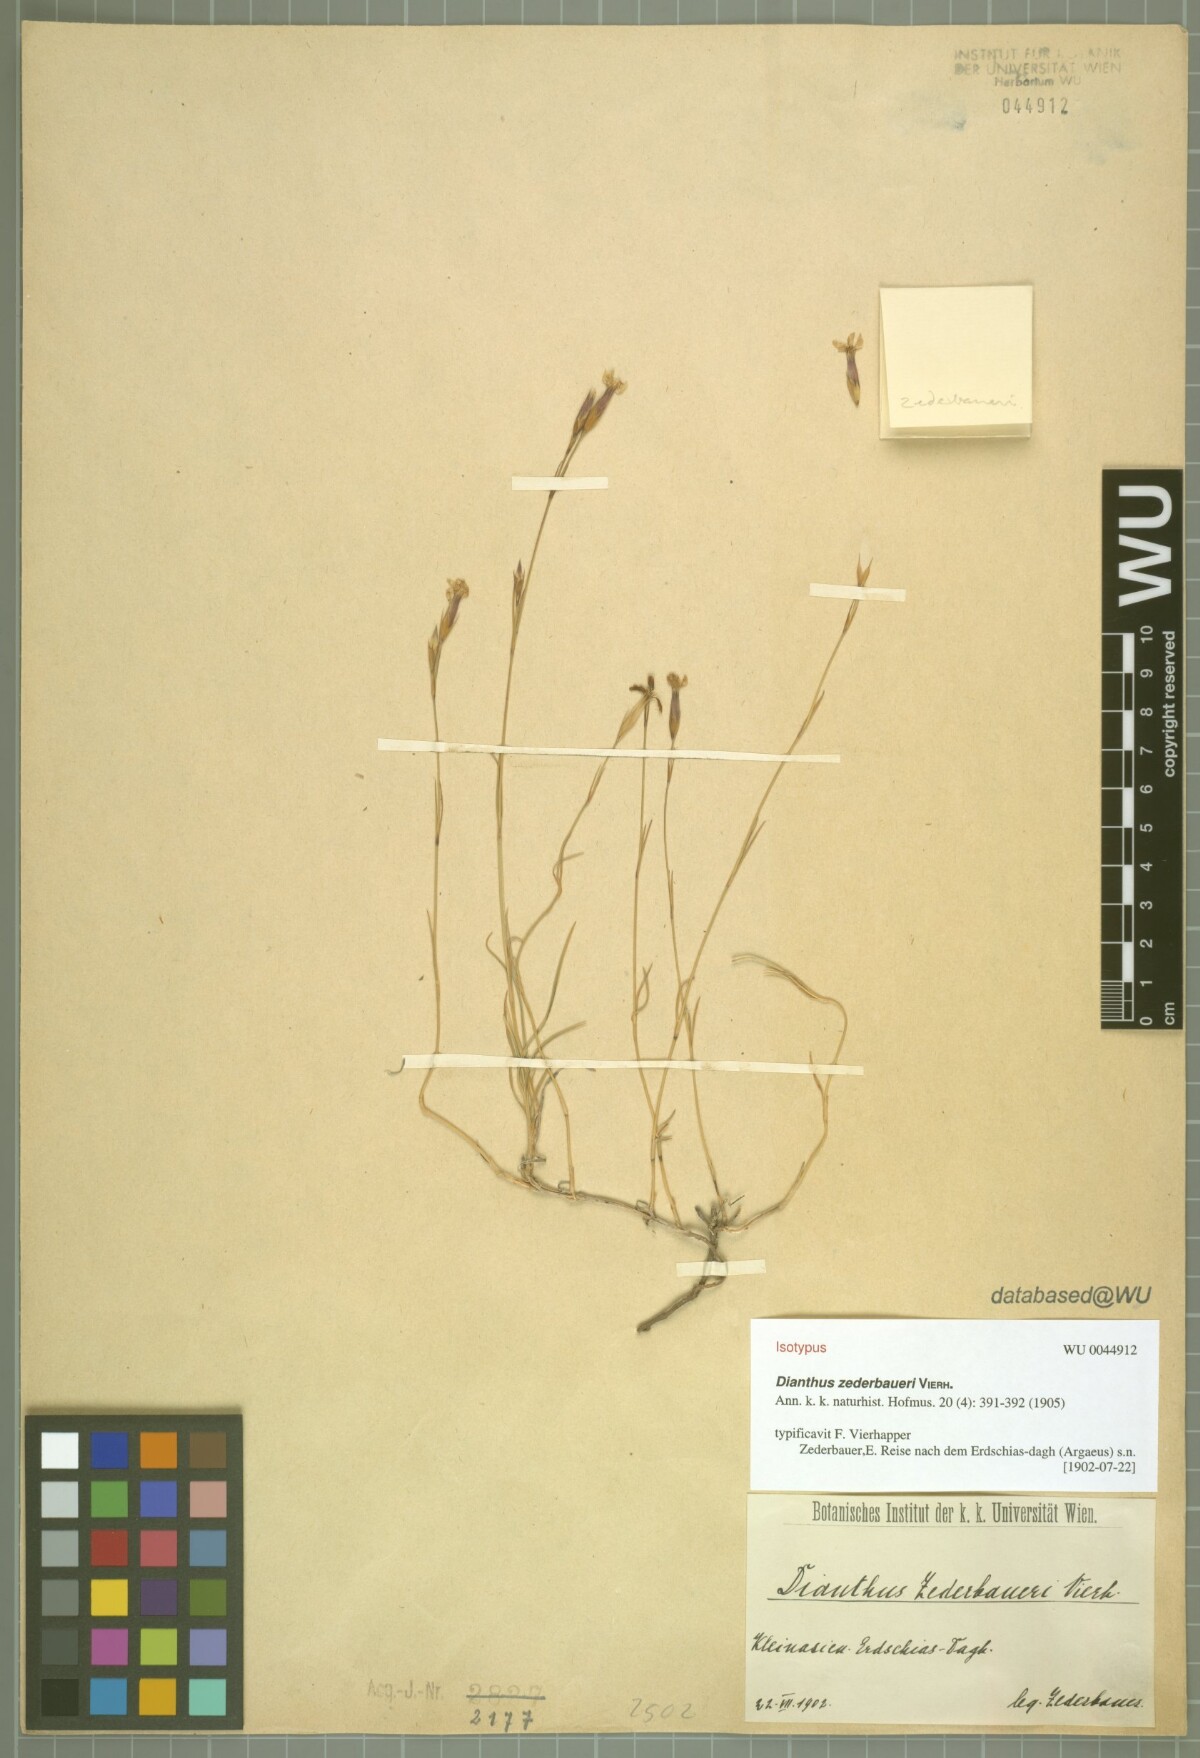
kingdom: Plantae
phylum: Tracheophyta
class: Magnoliopsida
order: Caryophyllales
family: Caryophyllaceae
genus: Dianthus
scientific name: Dianthus zederbaueri
